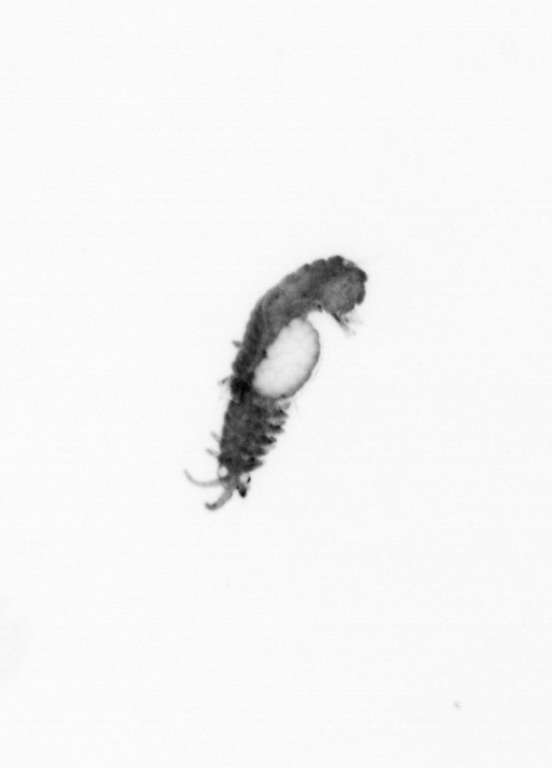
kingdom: Animalia
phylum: Annelida
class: Polychaeta
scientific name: Polychaeta
